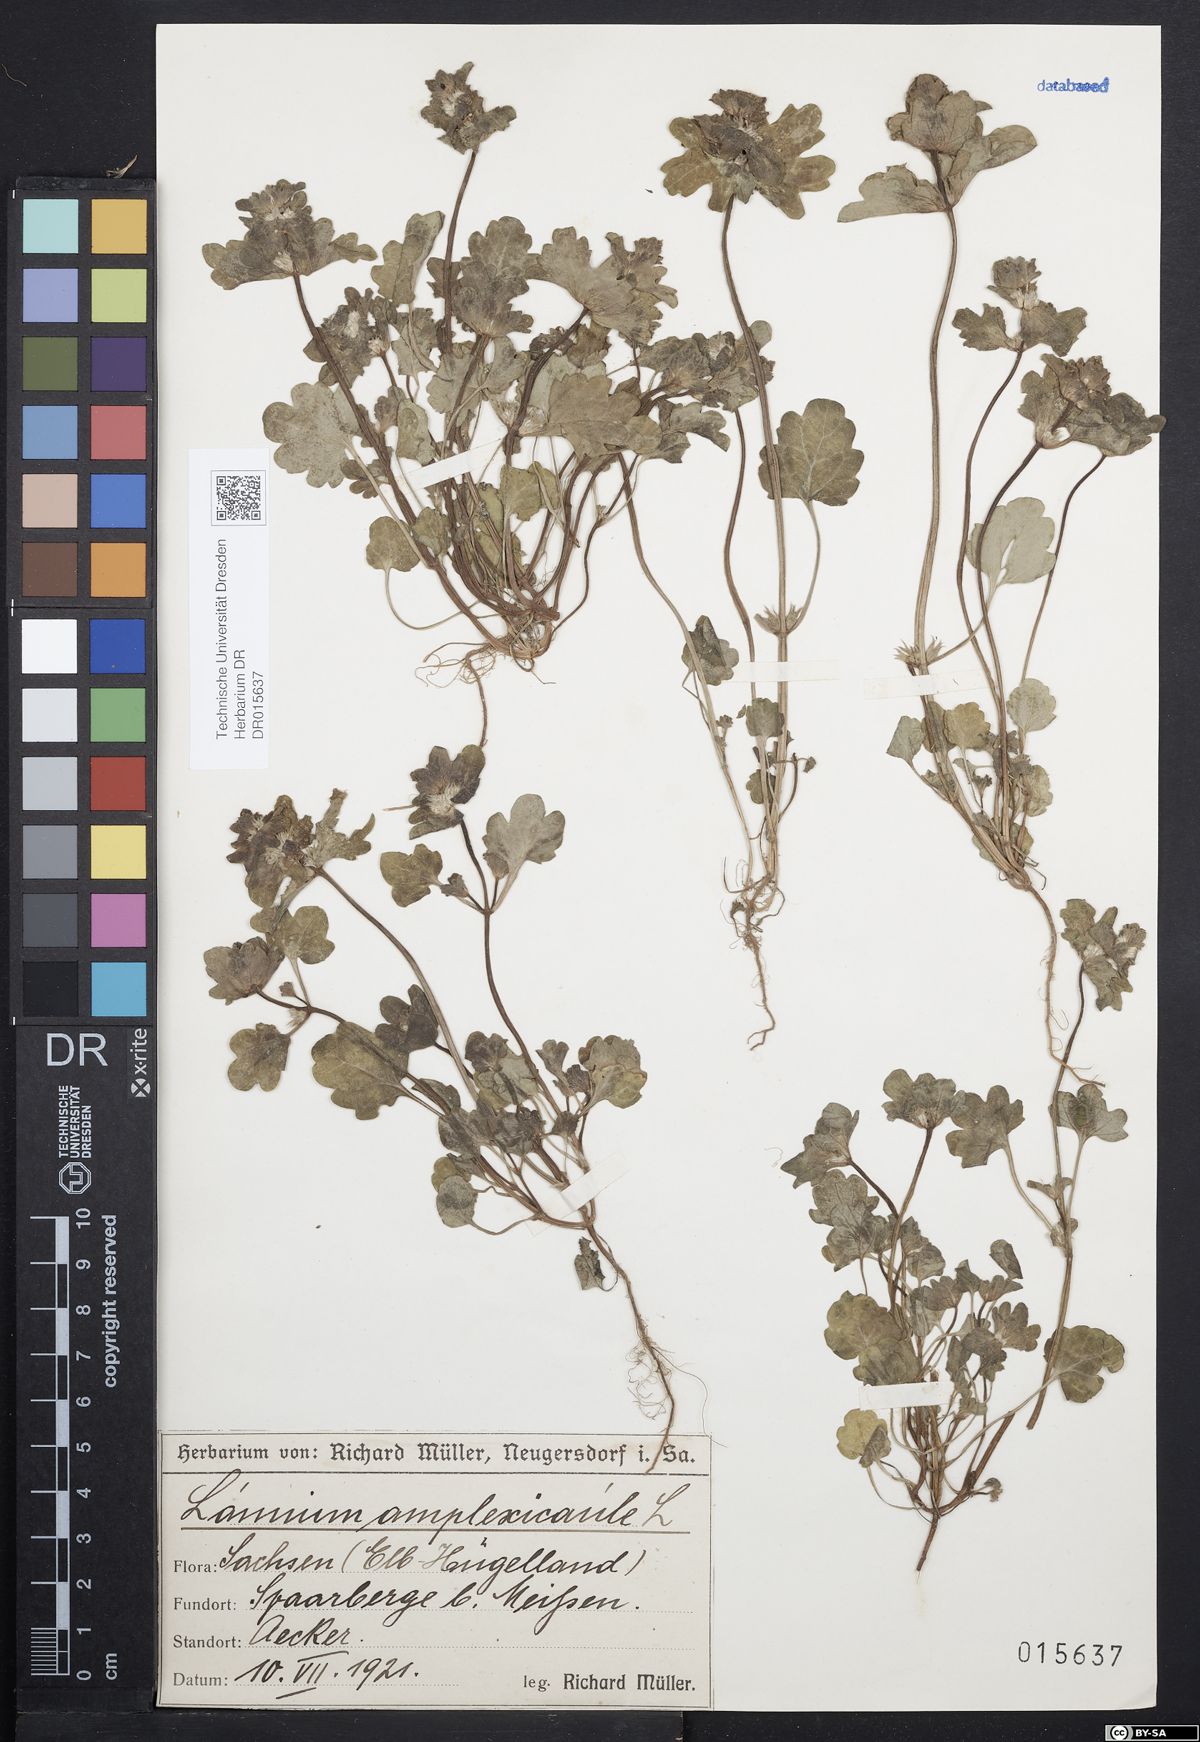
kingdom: Plantae
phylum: Tracheophyta
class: Magnoliopsida
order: Lamiales
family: Lamiaceae
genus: Lamium
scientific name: Lamium amplexicaule
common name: Henbit dead-nettle
